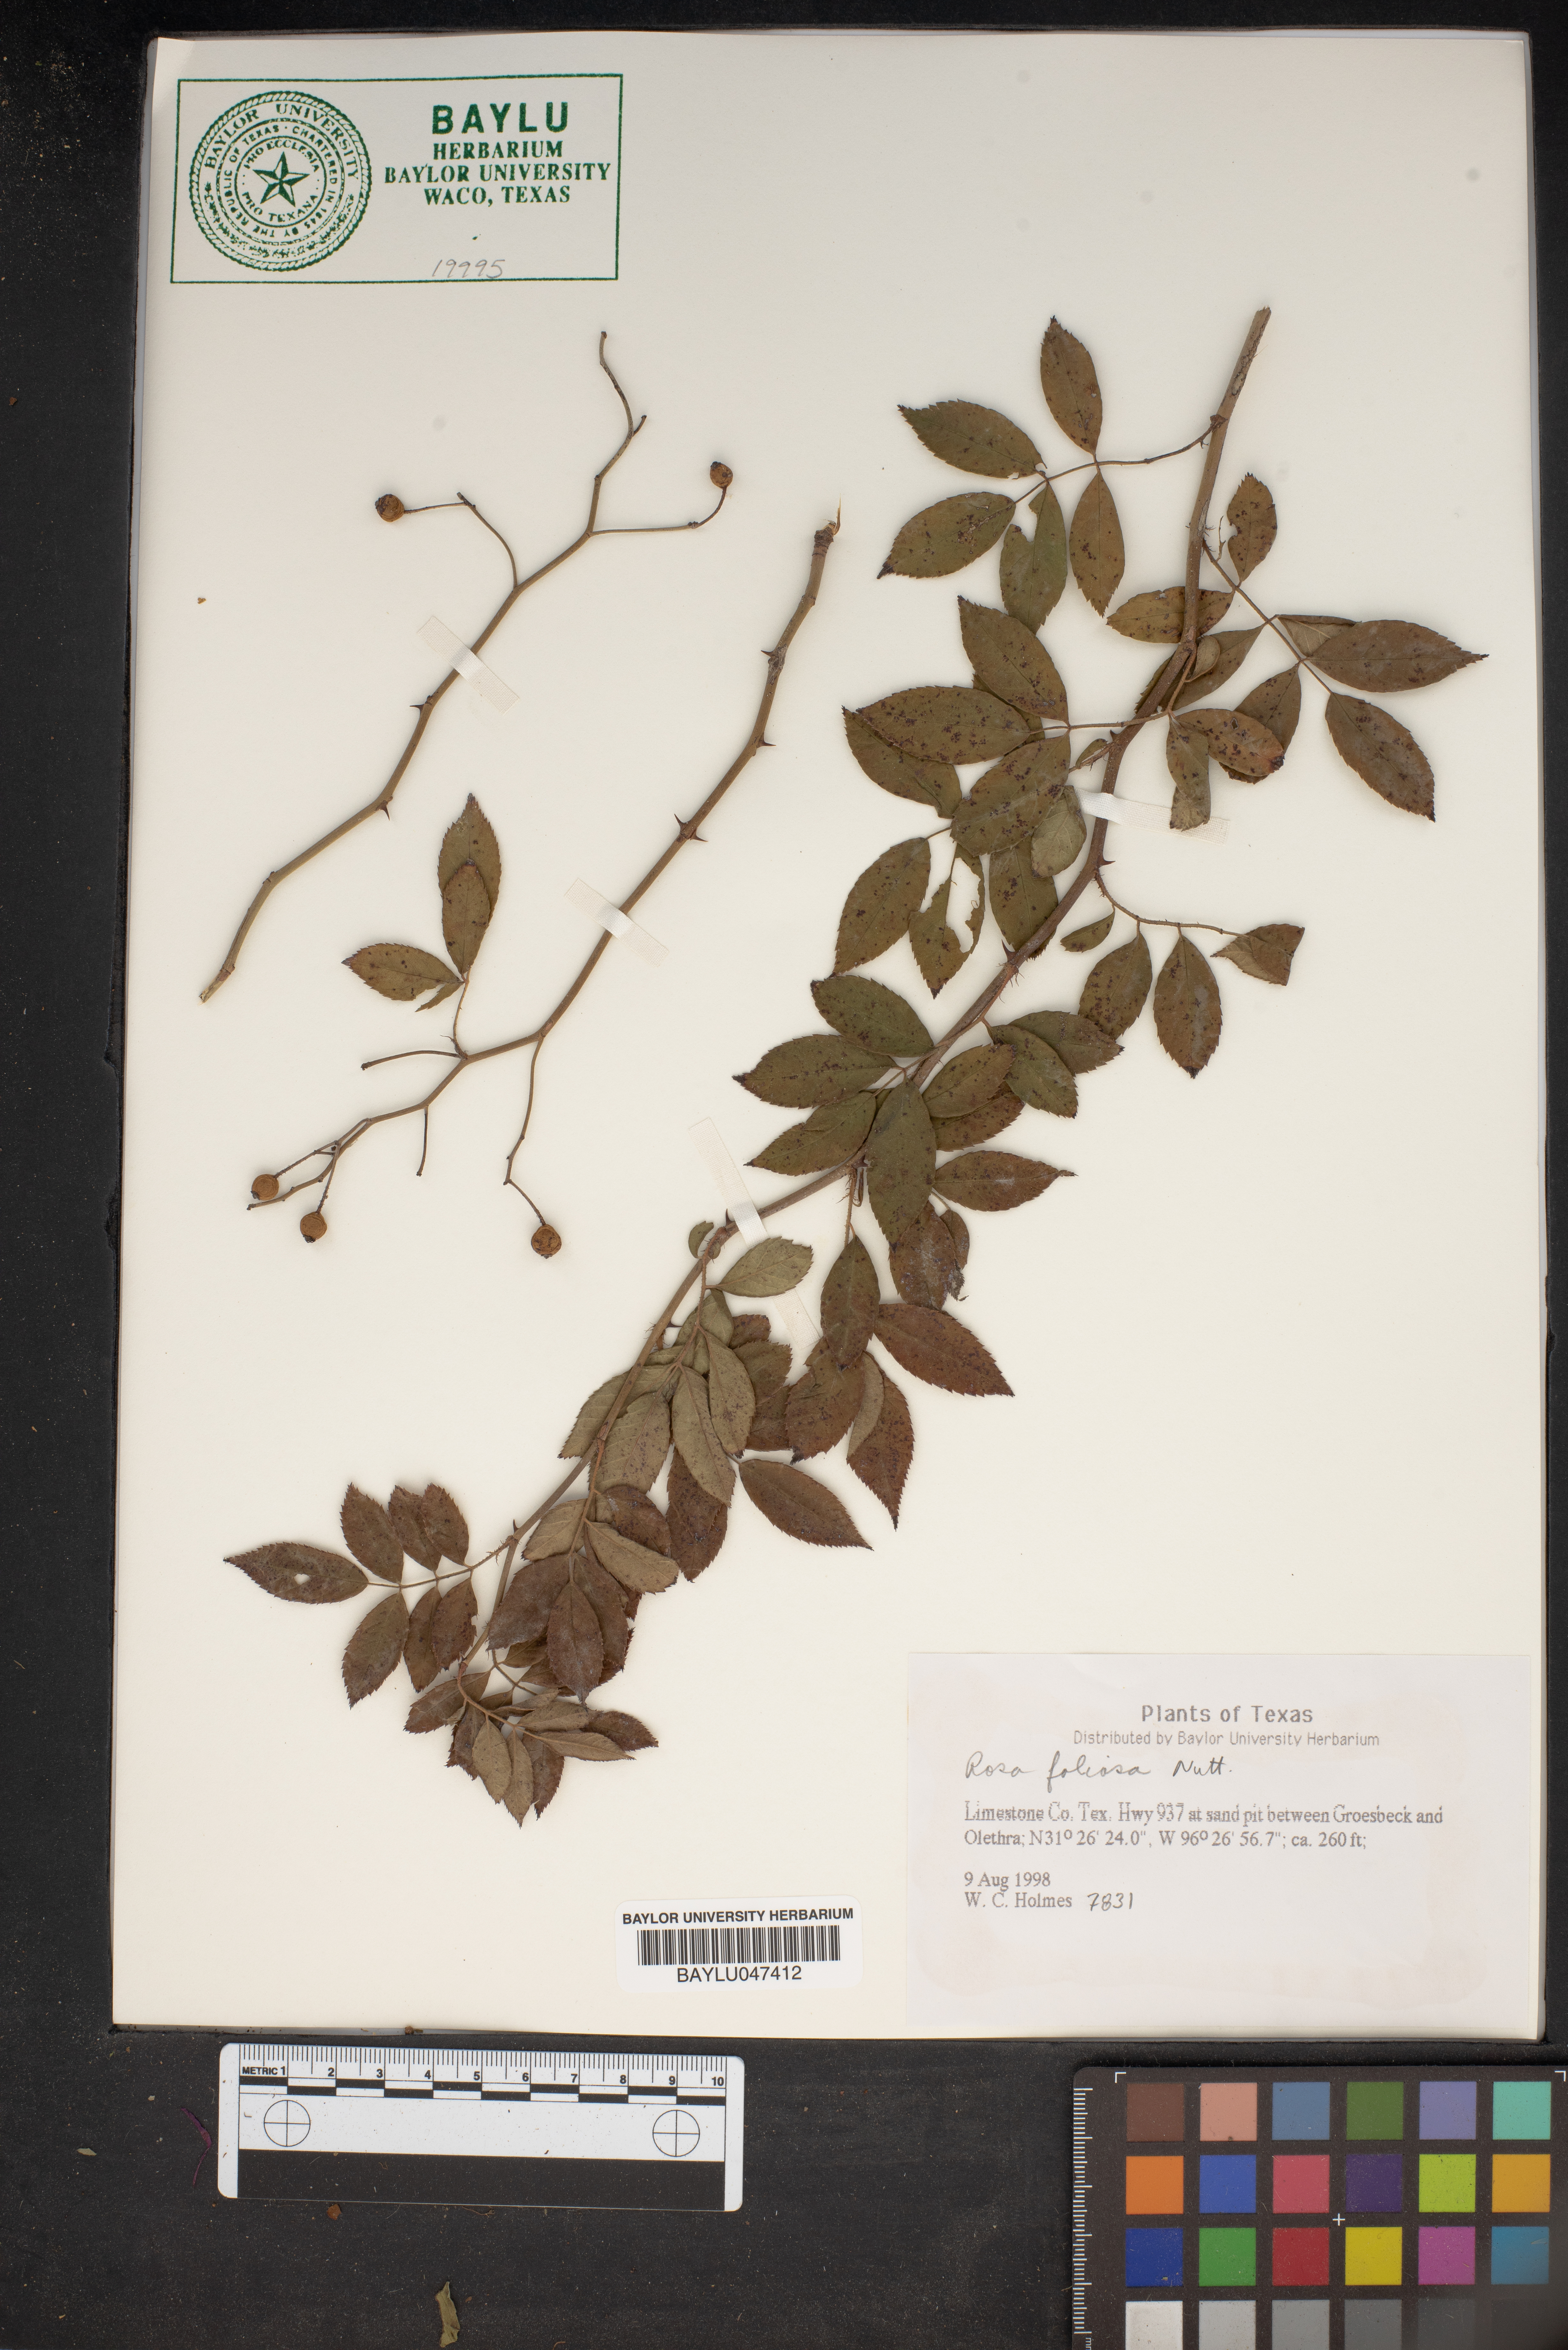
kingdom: Plantae
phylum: Tracheophyta
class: Magnoliopsida
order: Rosales
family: Rosaceae
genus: Rosa
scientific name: Rosa foliosa
